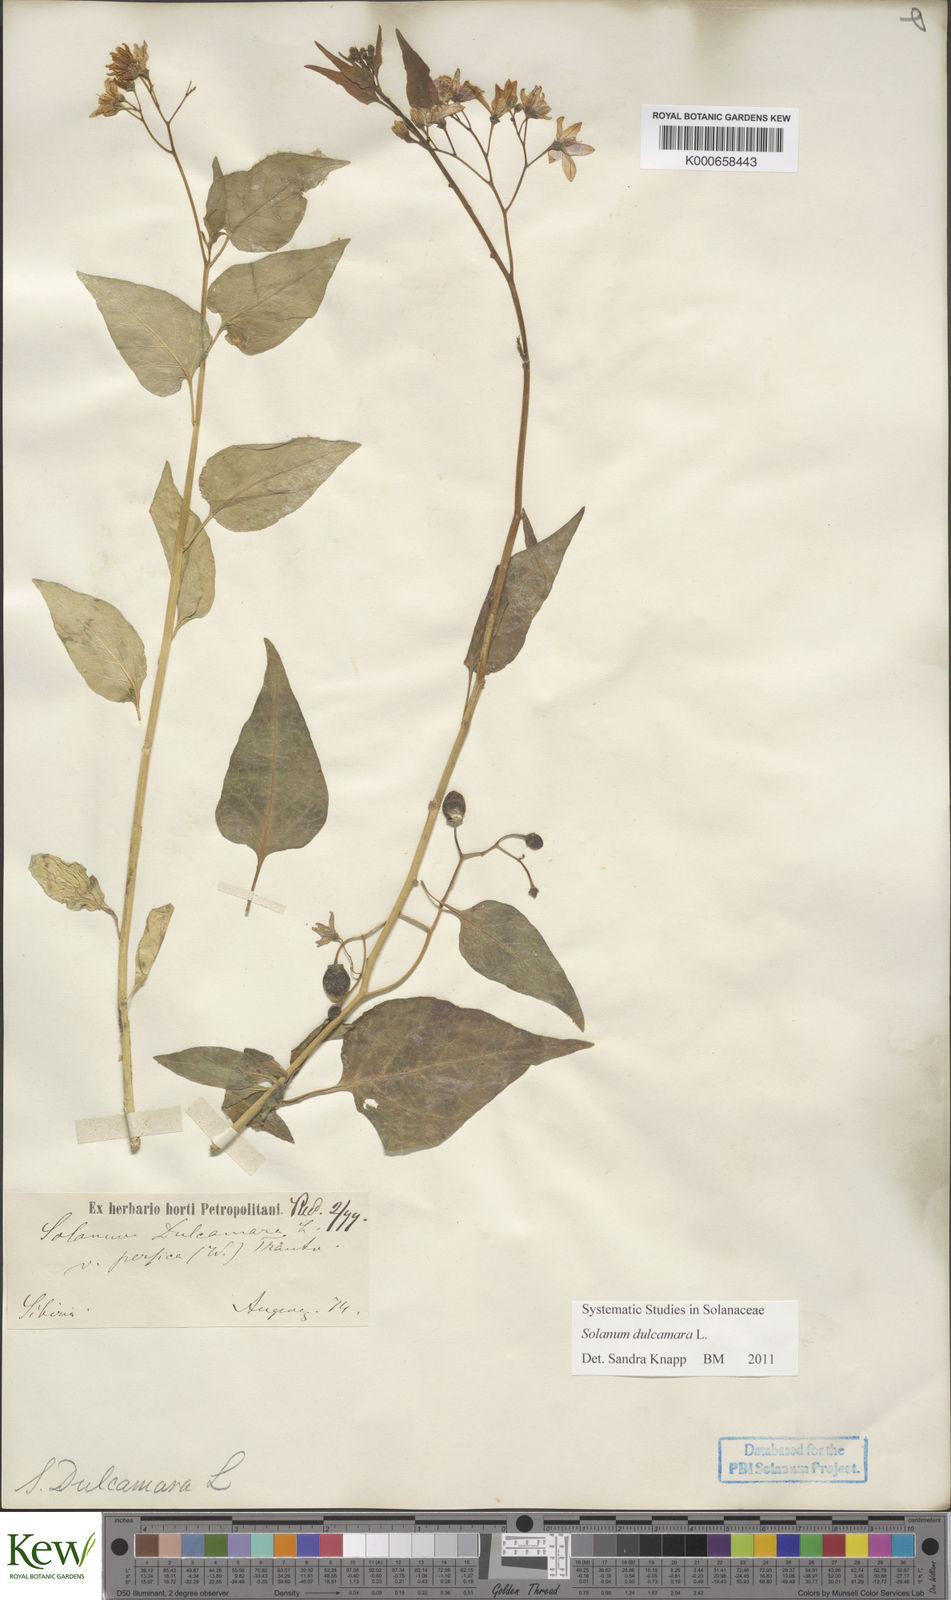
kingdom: Plantae
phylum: Tracheophyta
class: Magnoliopsida
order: Solanales
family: Solanaceae
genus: Solanum
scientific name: Solanum dulcamara
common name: Climbing nightshade
